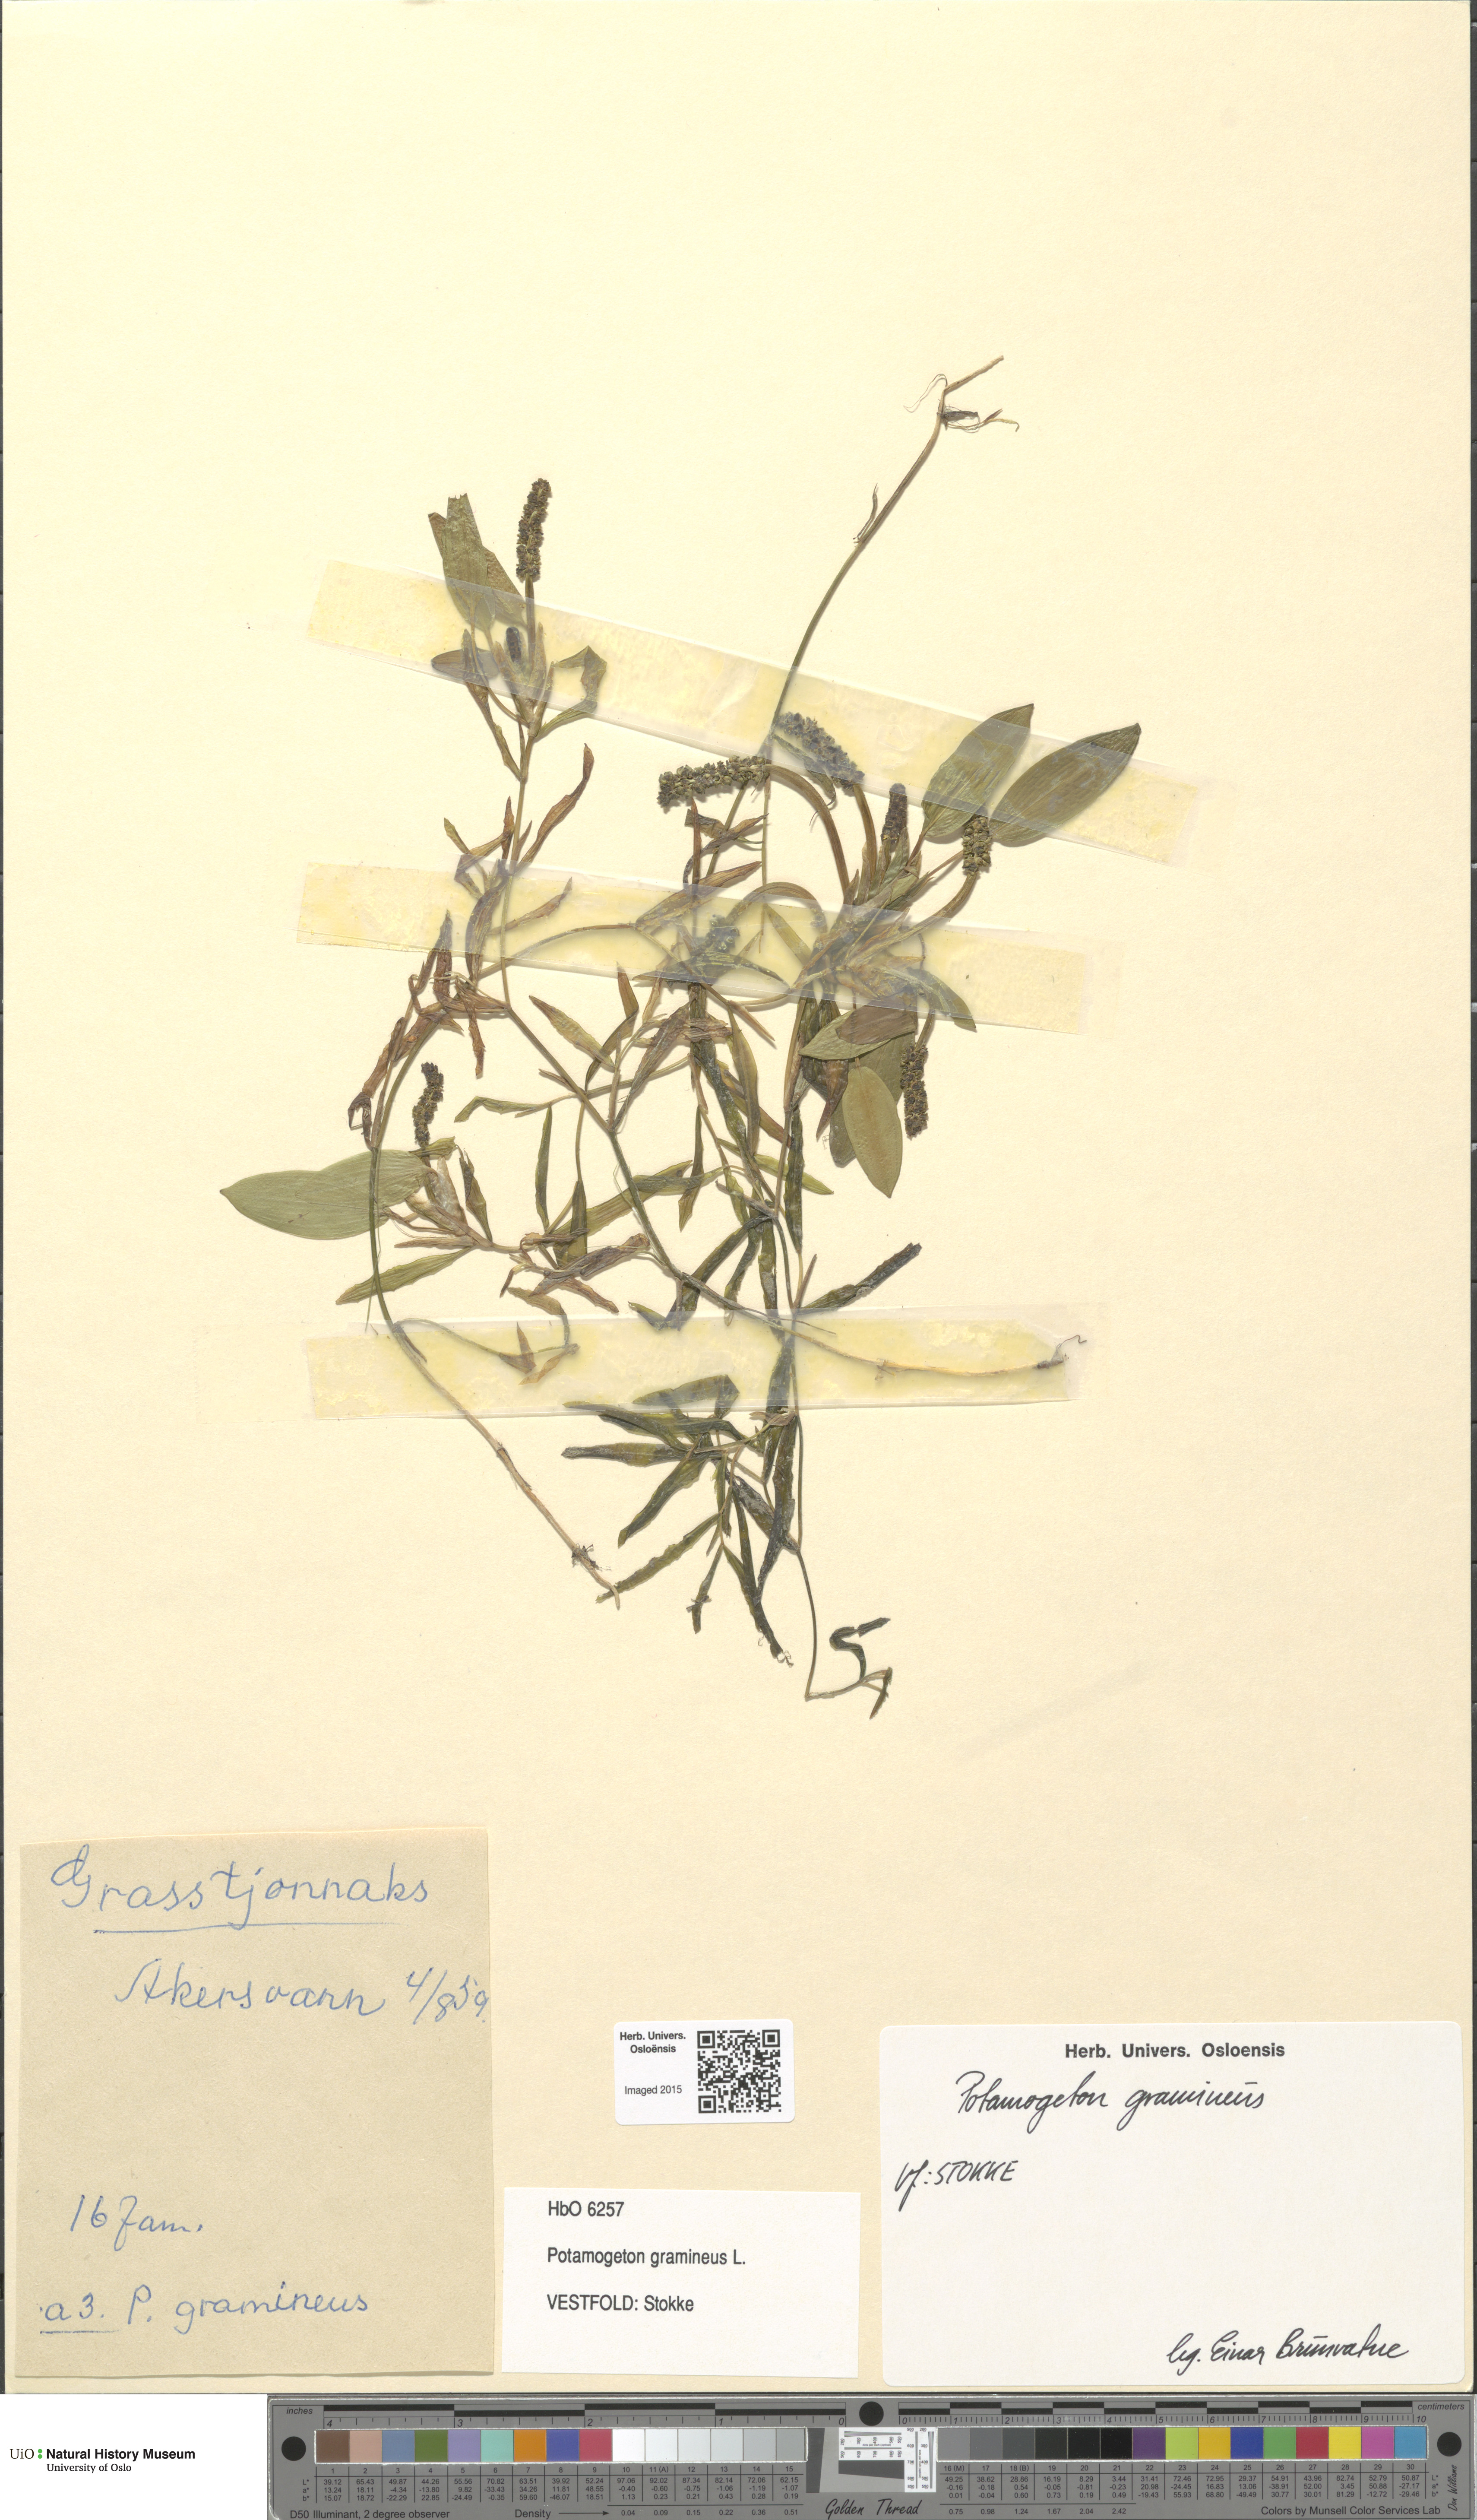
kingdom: Plantae
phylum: Tracheophyta
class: Liliopsida
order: Alismatales
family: Potamogetonaceae
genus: Potamogeton
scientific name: Potamogeton gramineus
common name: Various-leaved pondweed
